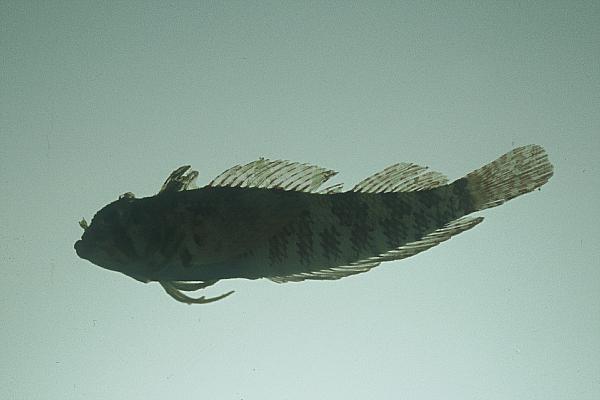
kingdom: Animalia
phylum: Chordata
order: Perciformes
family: Tripterygiidae
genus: Cremnochorites
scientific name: Cremnochorites capensis
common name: Cape triplefin
